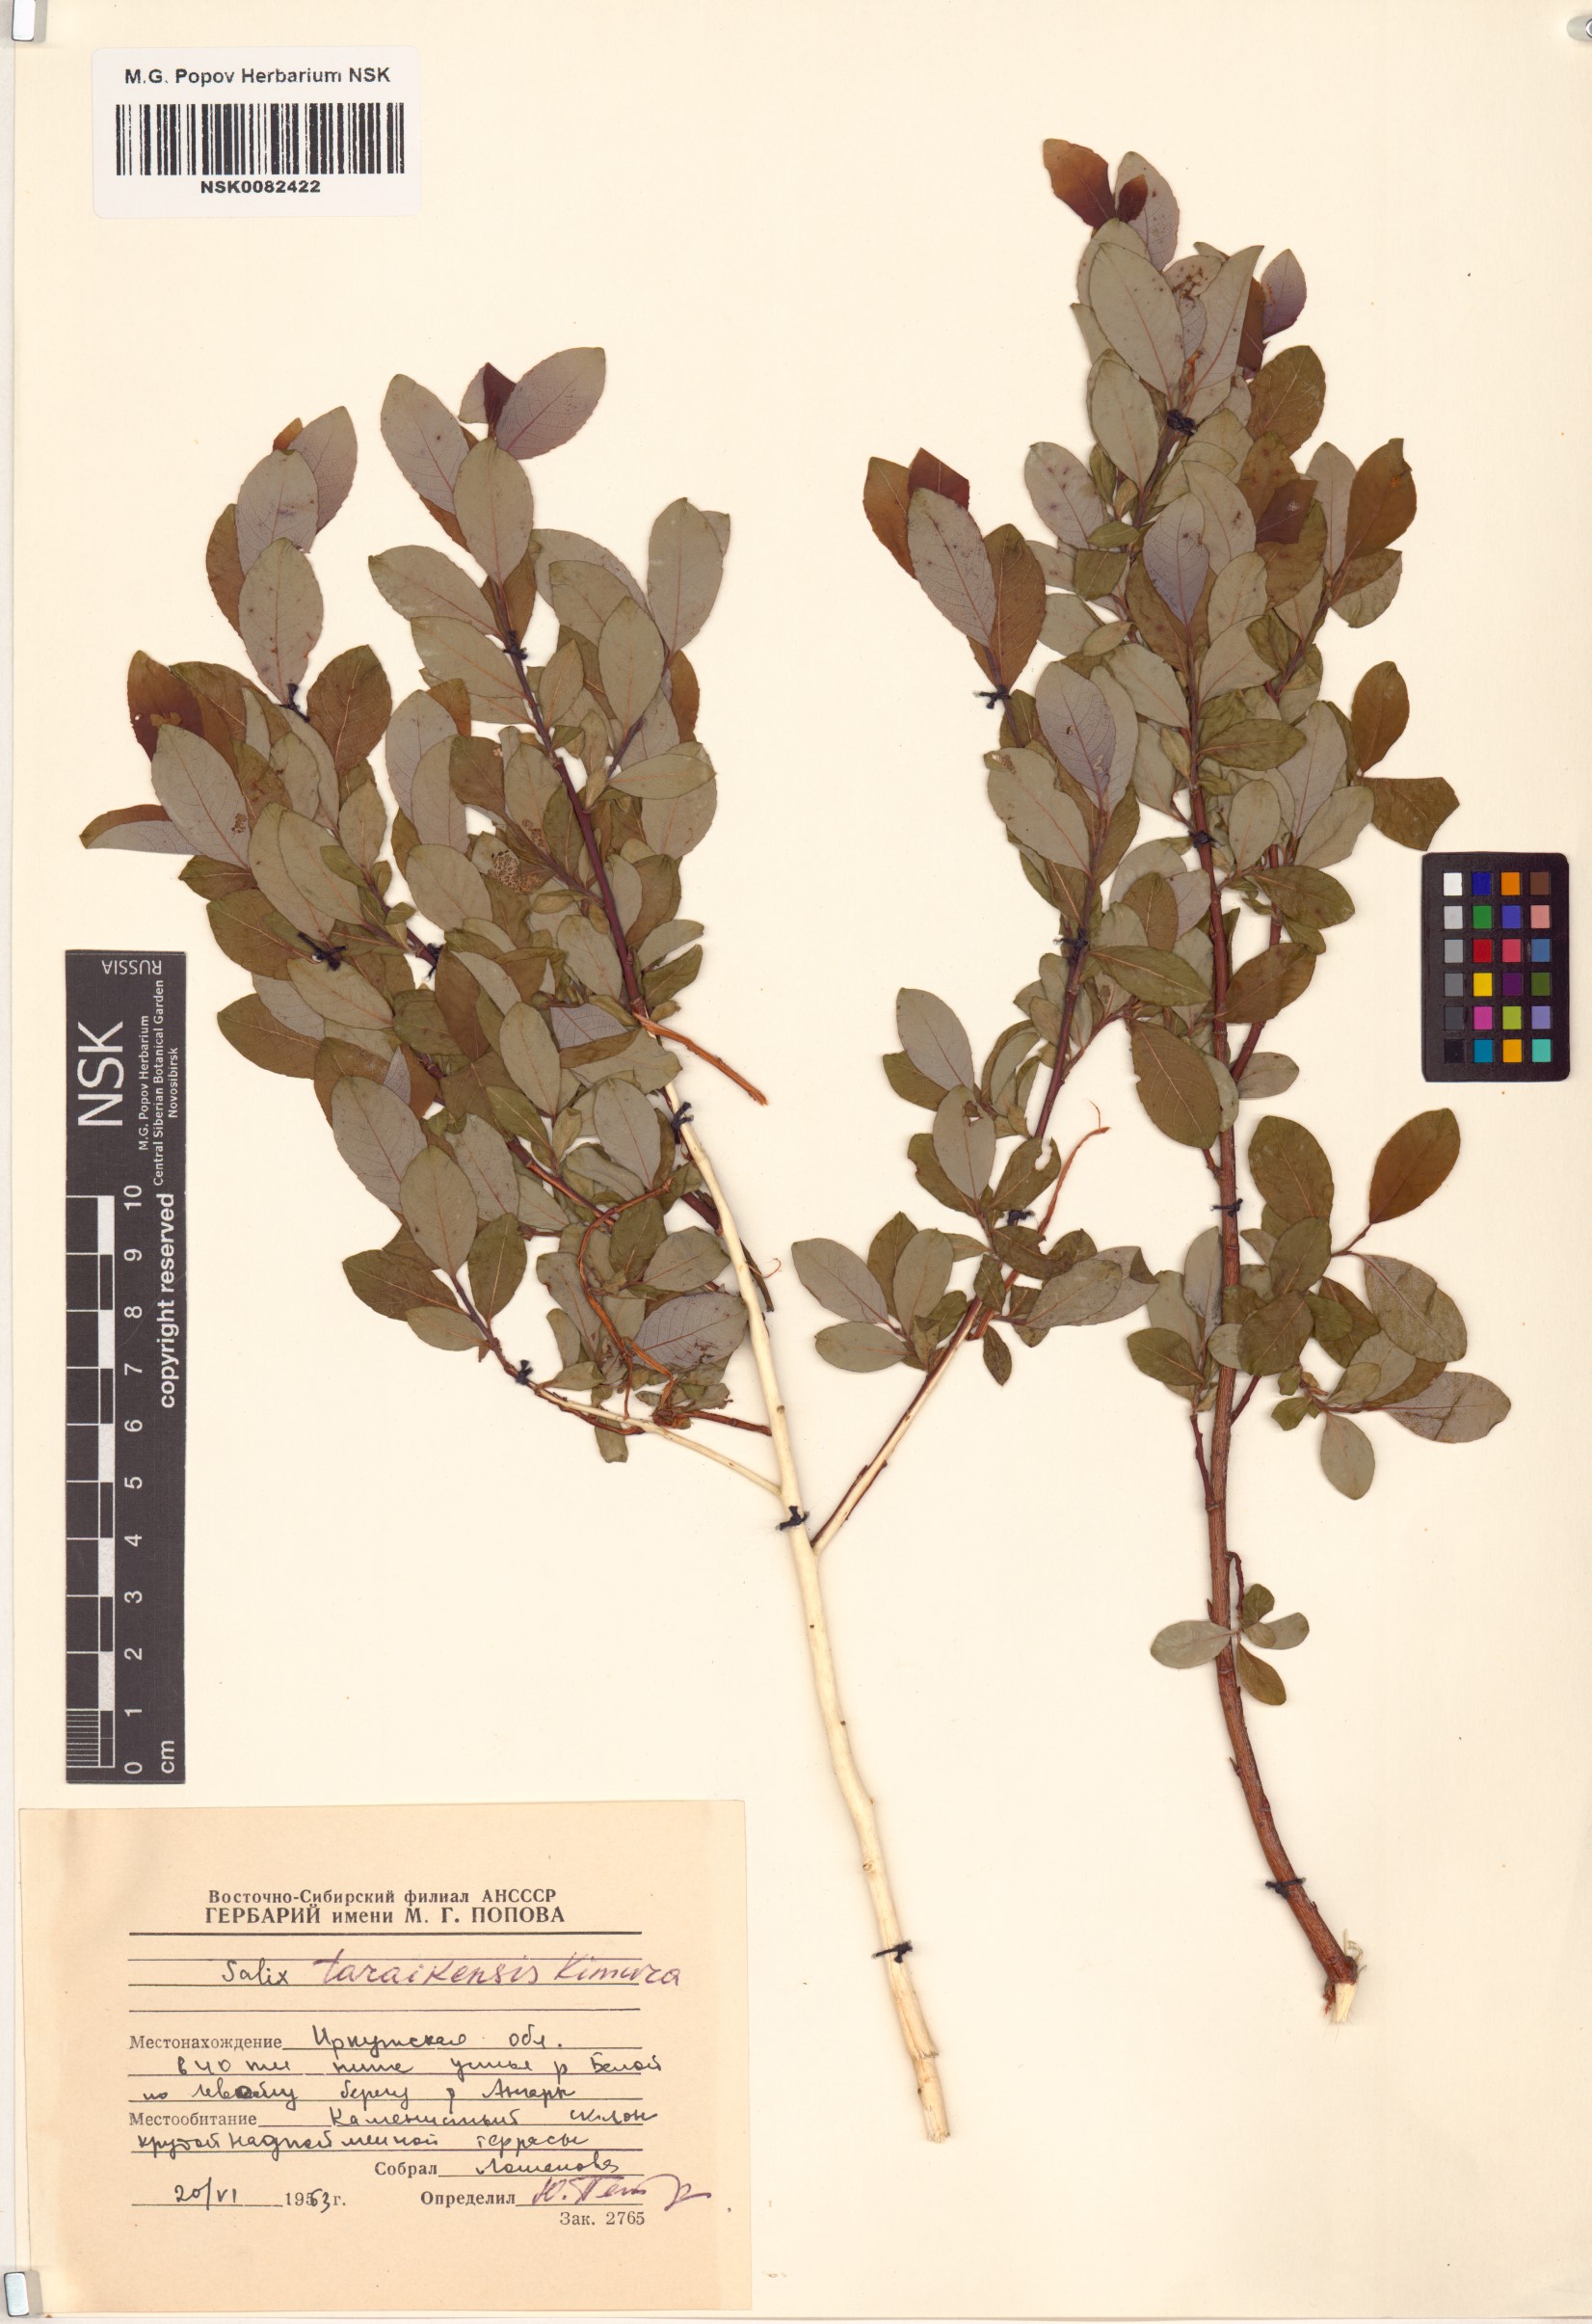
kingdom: Plantae
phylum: Tracheophyta
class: Magnoliopsida
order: Malpighiales
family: Salicaceae
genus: Salix
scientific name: Salix taraikensis
